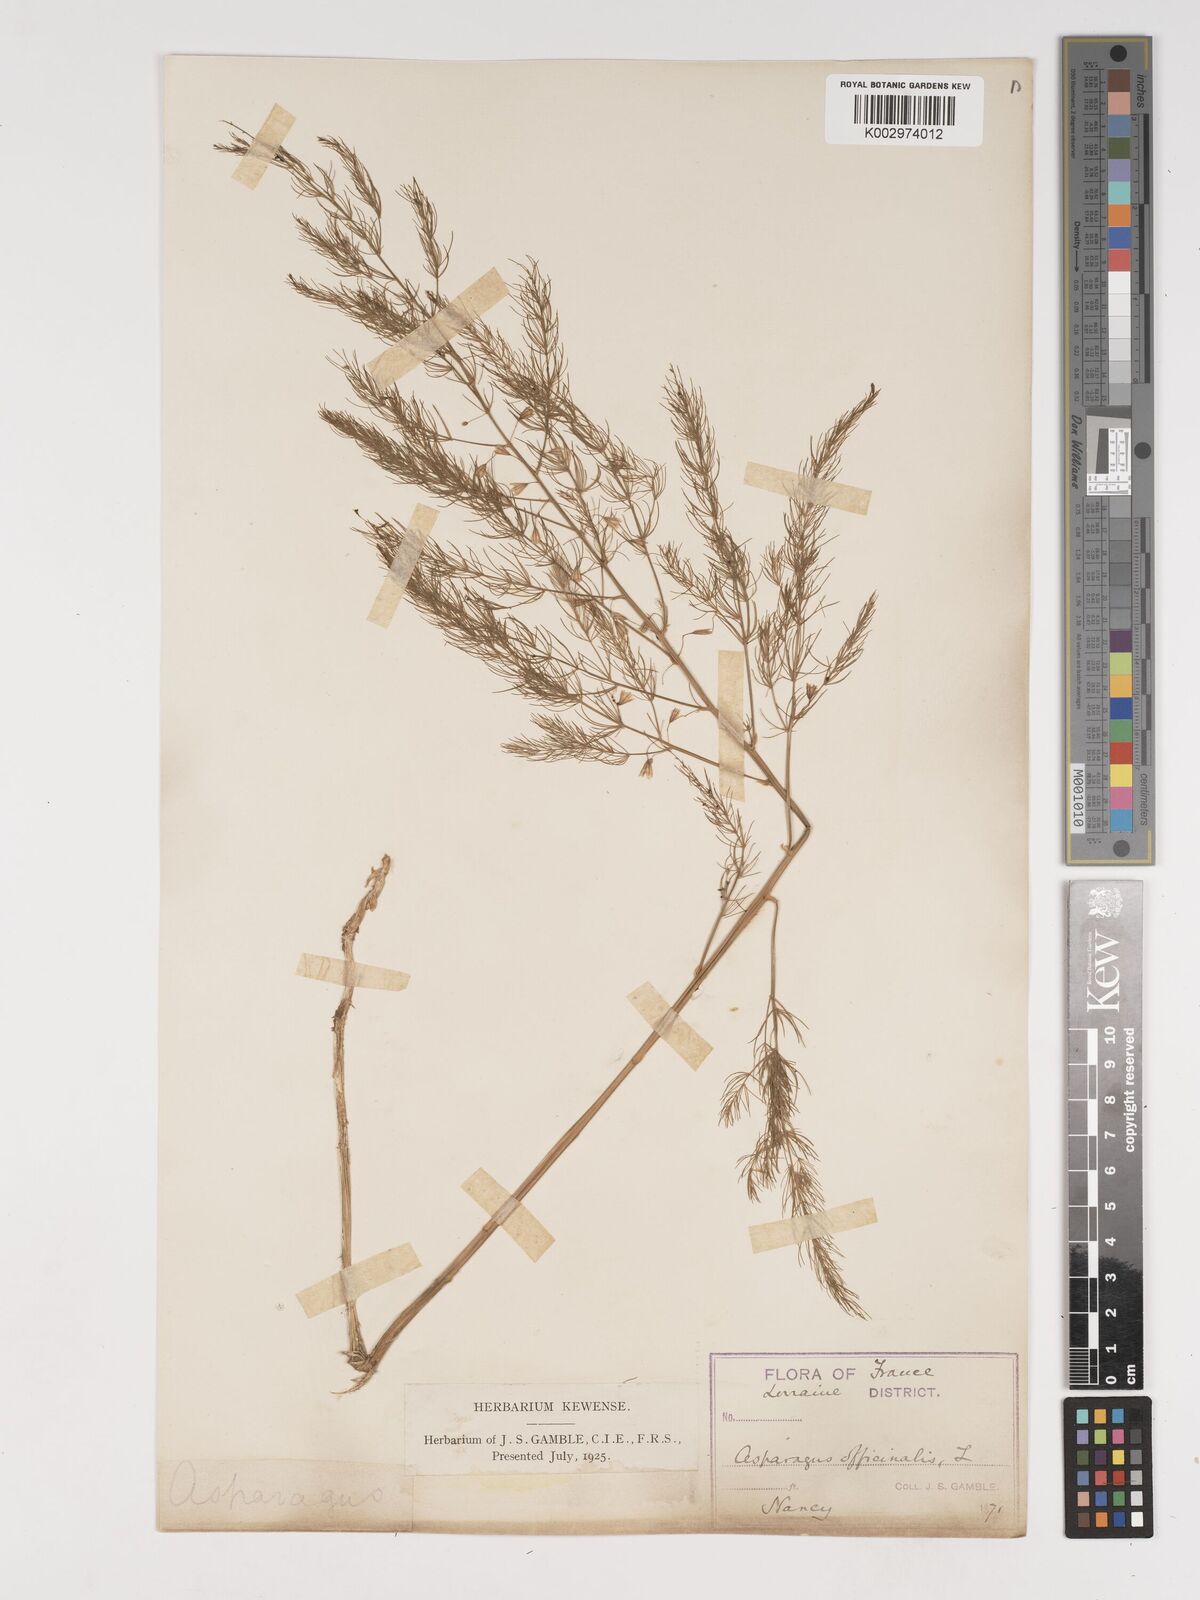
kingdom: Plantae
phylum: Tracheophyta
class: Liliopsida
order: Asparagales
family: Asparagaceae
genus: Asparagus
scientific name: Asparagus officinalis
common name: Garden asparagus
